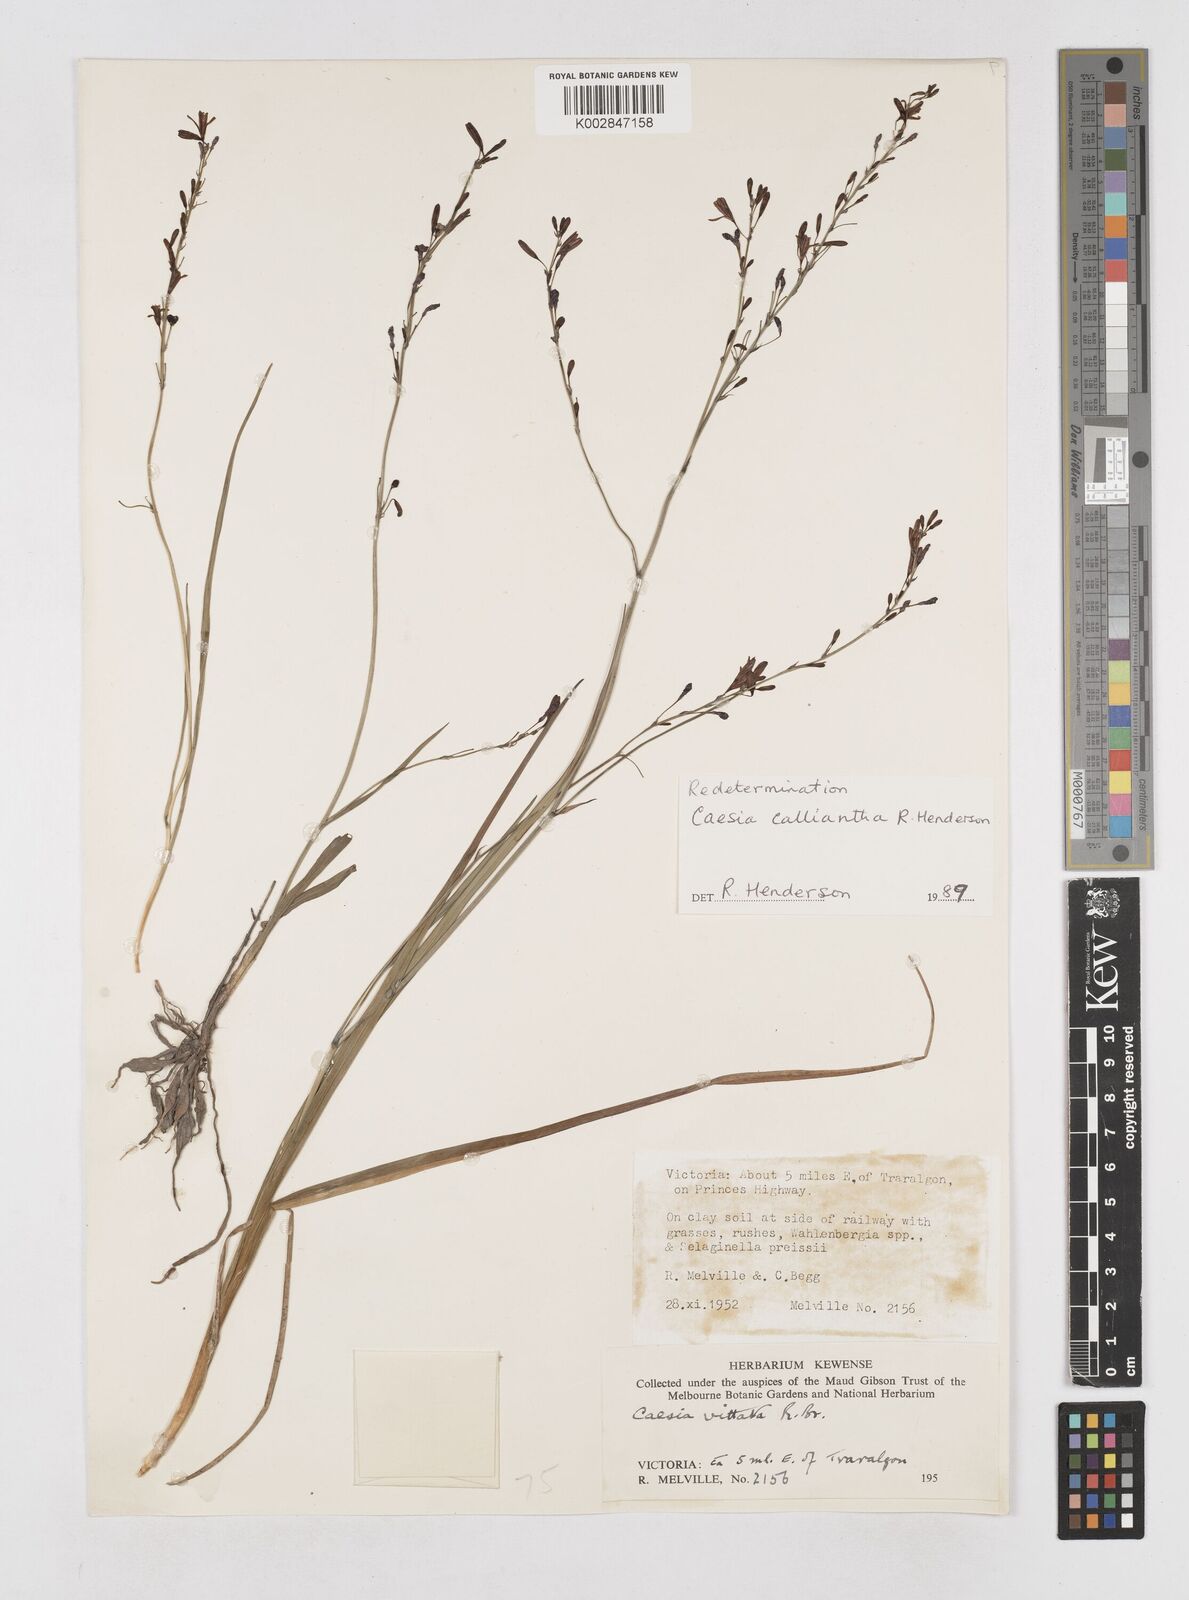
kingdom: Plantae
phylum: Tracheophyta
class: Liliopsida
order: Asparagales
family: Asphodelaceae
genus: Caesia
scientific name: Caesia calliantha
